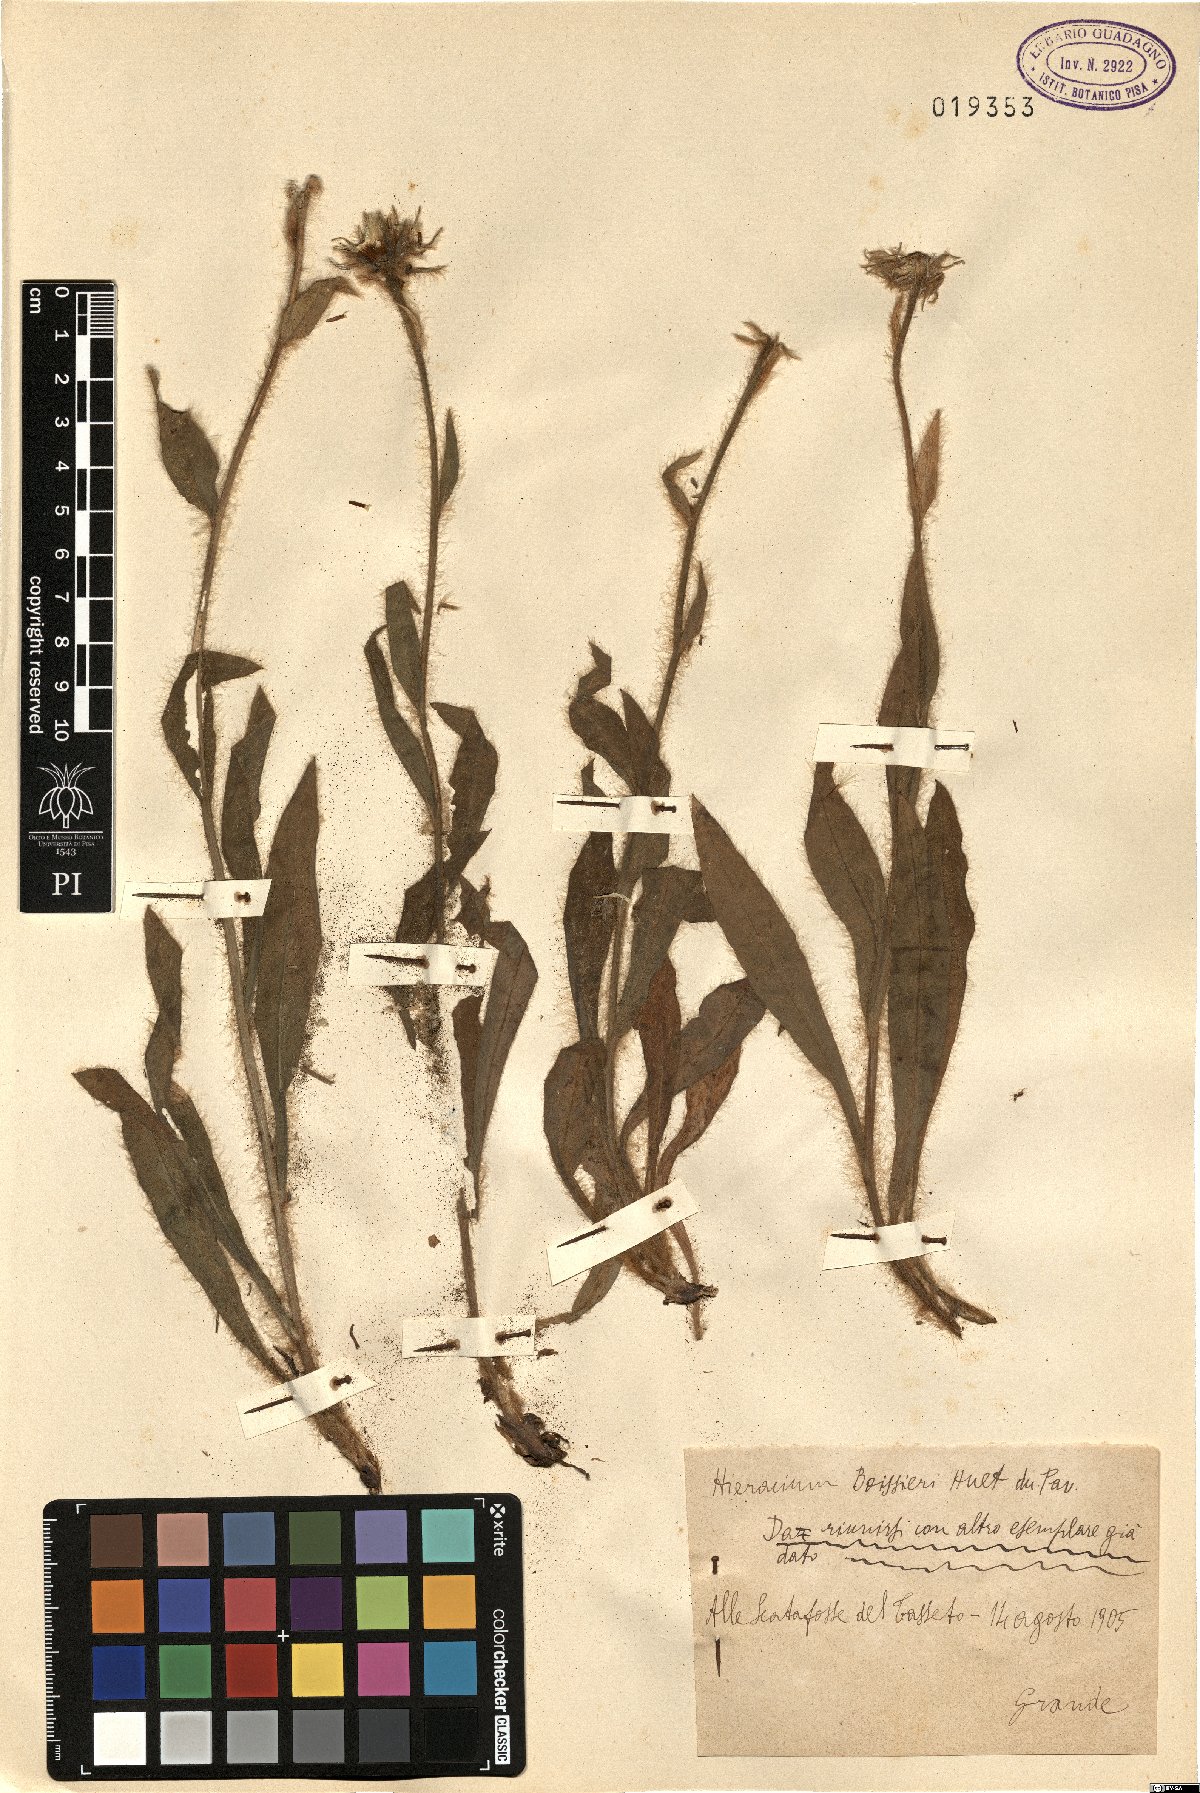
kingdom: Plantae
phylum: Tracheophyta
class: Magnoliopsida
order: Asterales
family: Asteraceae
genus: Hieracium
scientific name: Hieracium boissieri
